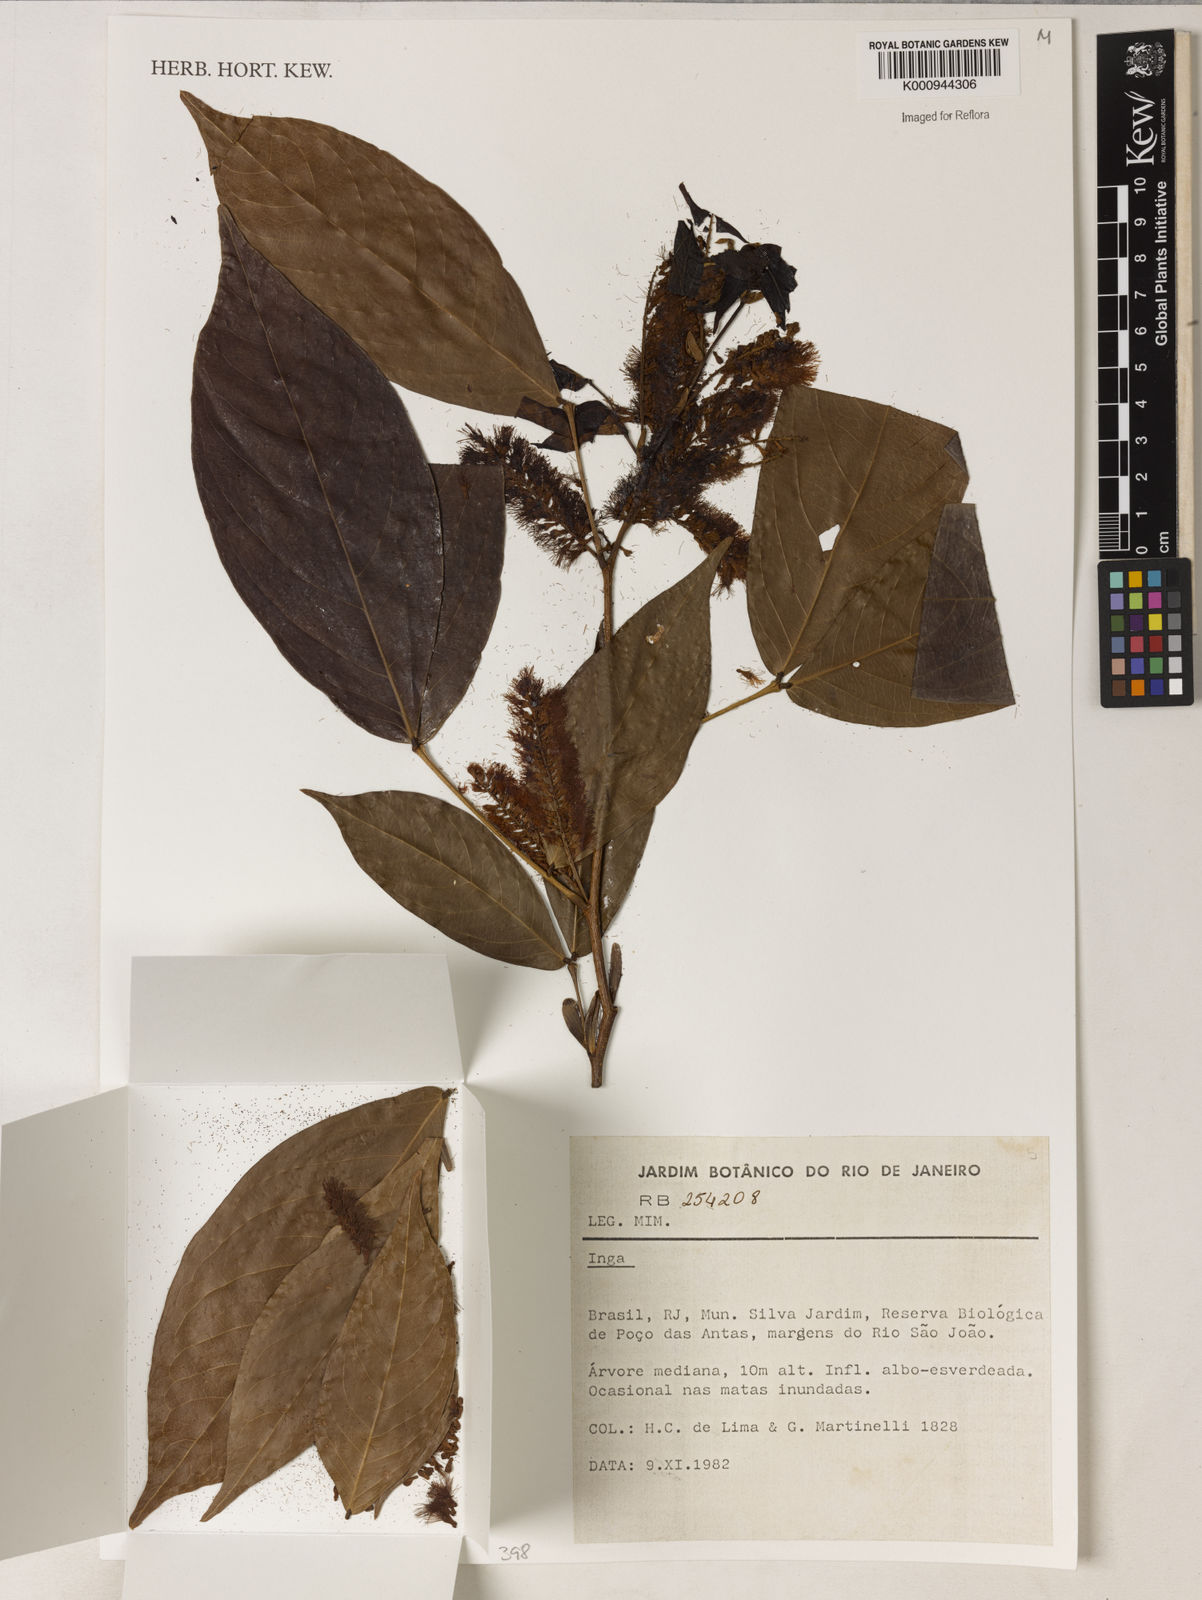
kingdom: Plantae
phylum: Tracheophyta
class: Magnoliopsida
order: Fabales
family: Fabaceae
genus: Inga
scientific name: Inga
